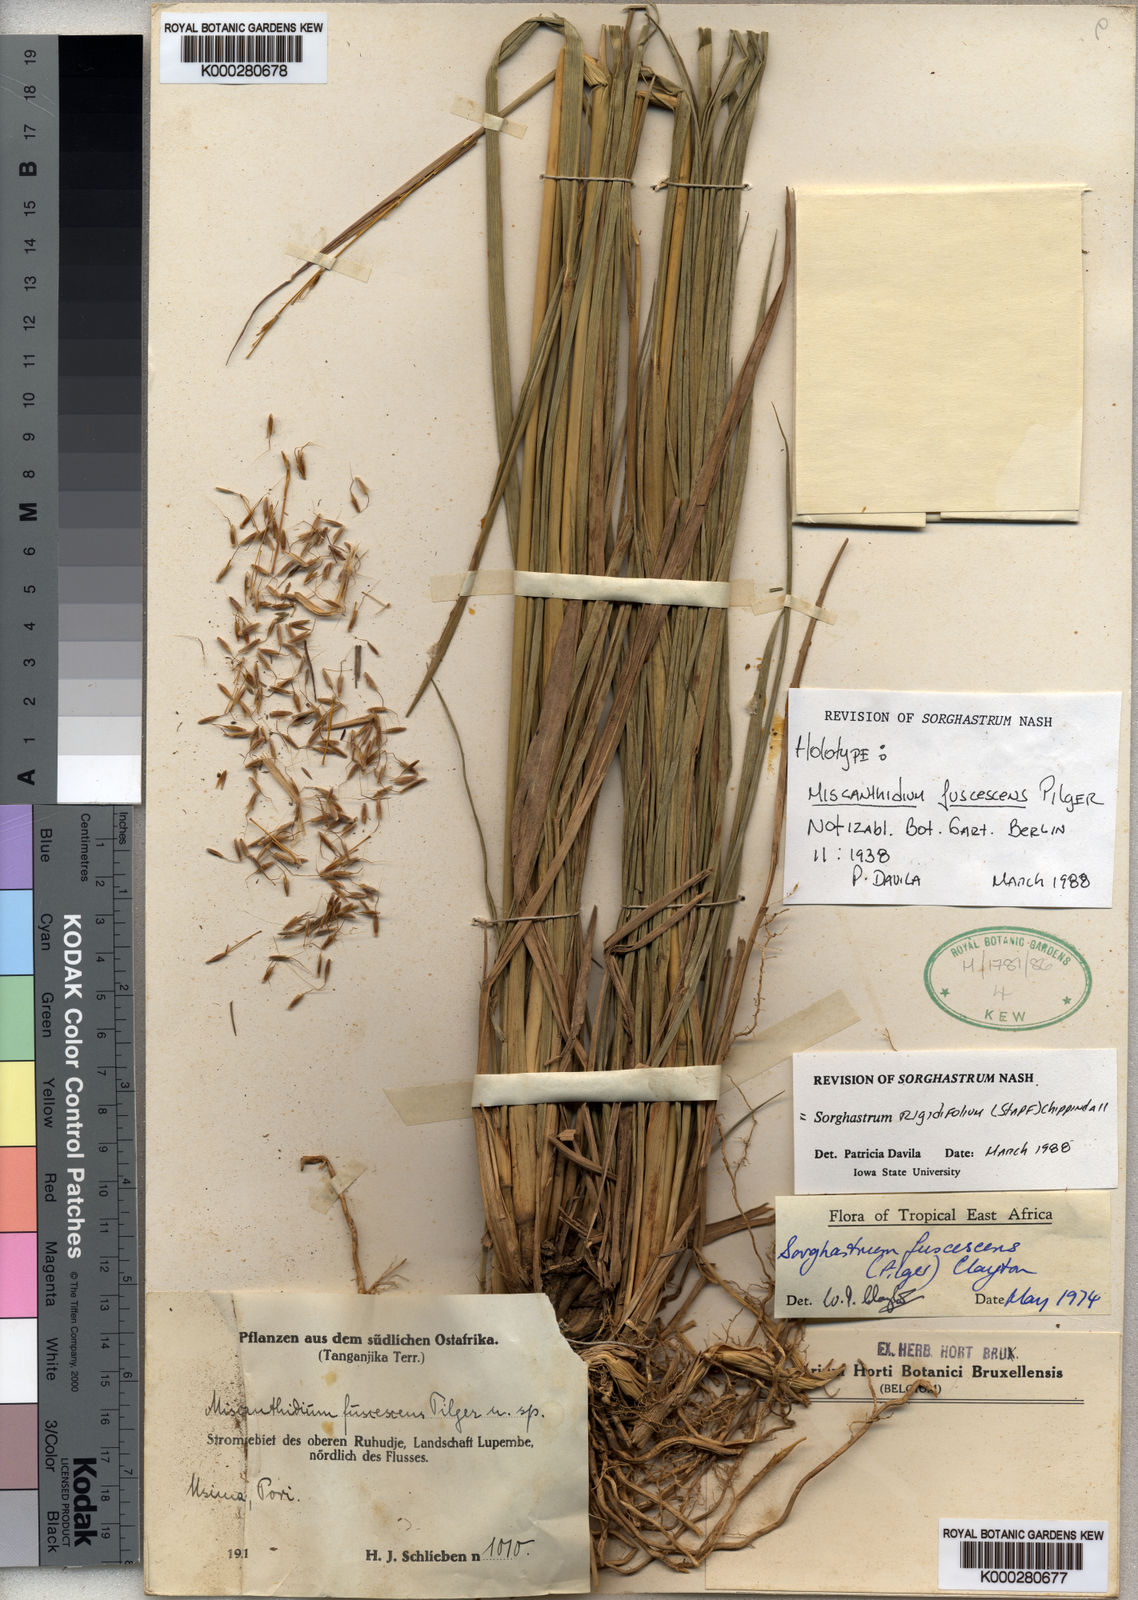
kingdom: Plantae
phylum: Tracheophyta
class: Liliopsida
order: Poales
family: Poaceae
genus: Sorghastrum
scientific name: Sorghastrum fuscescens
